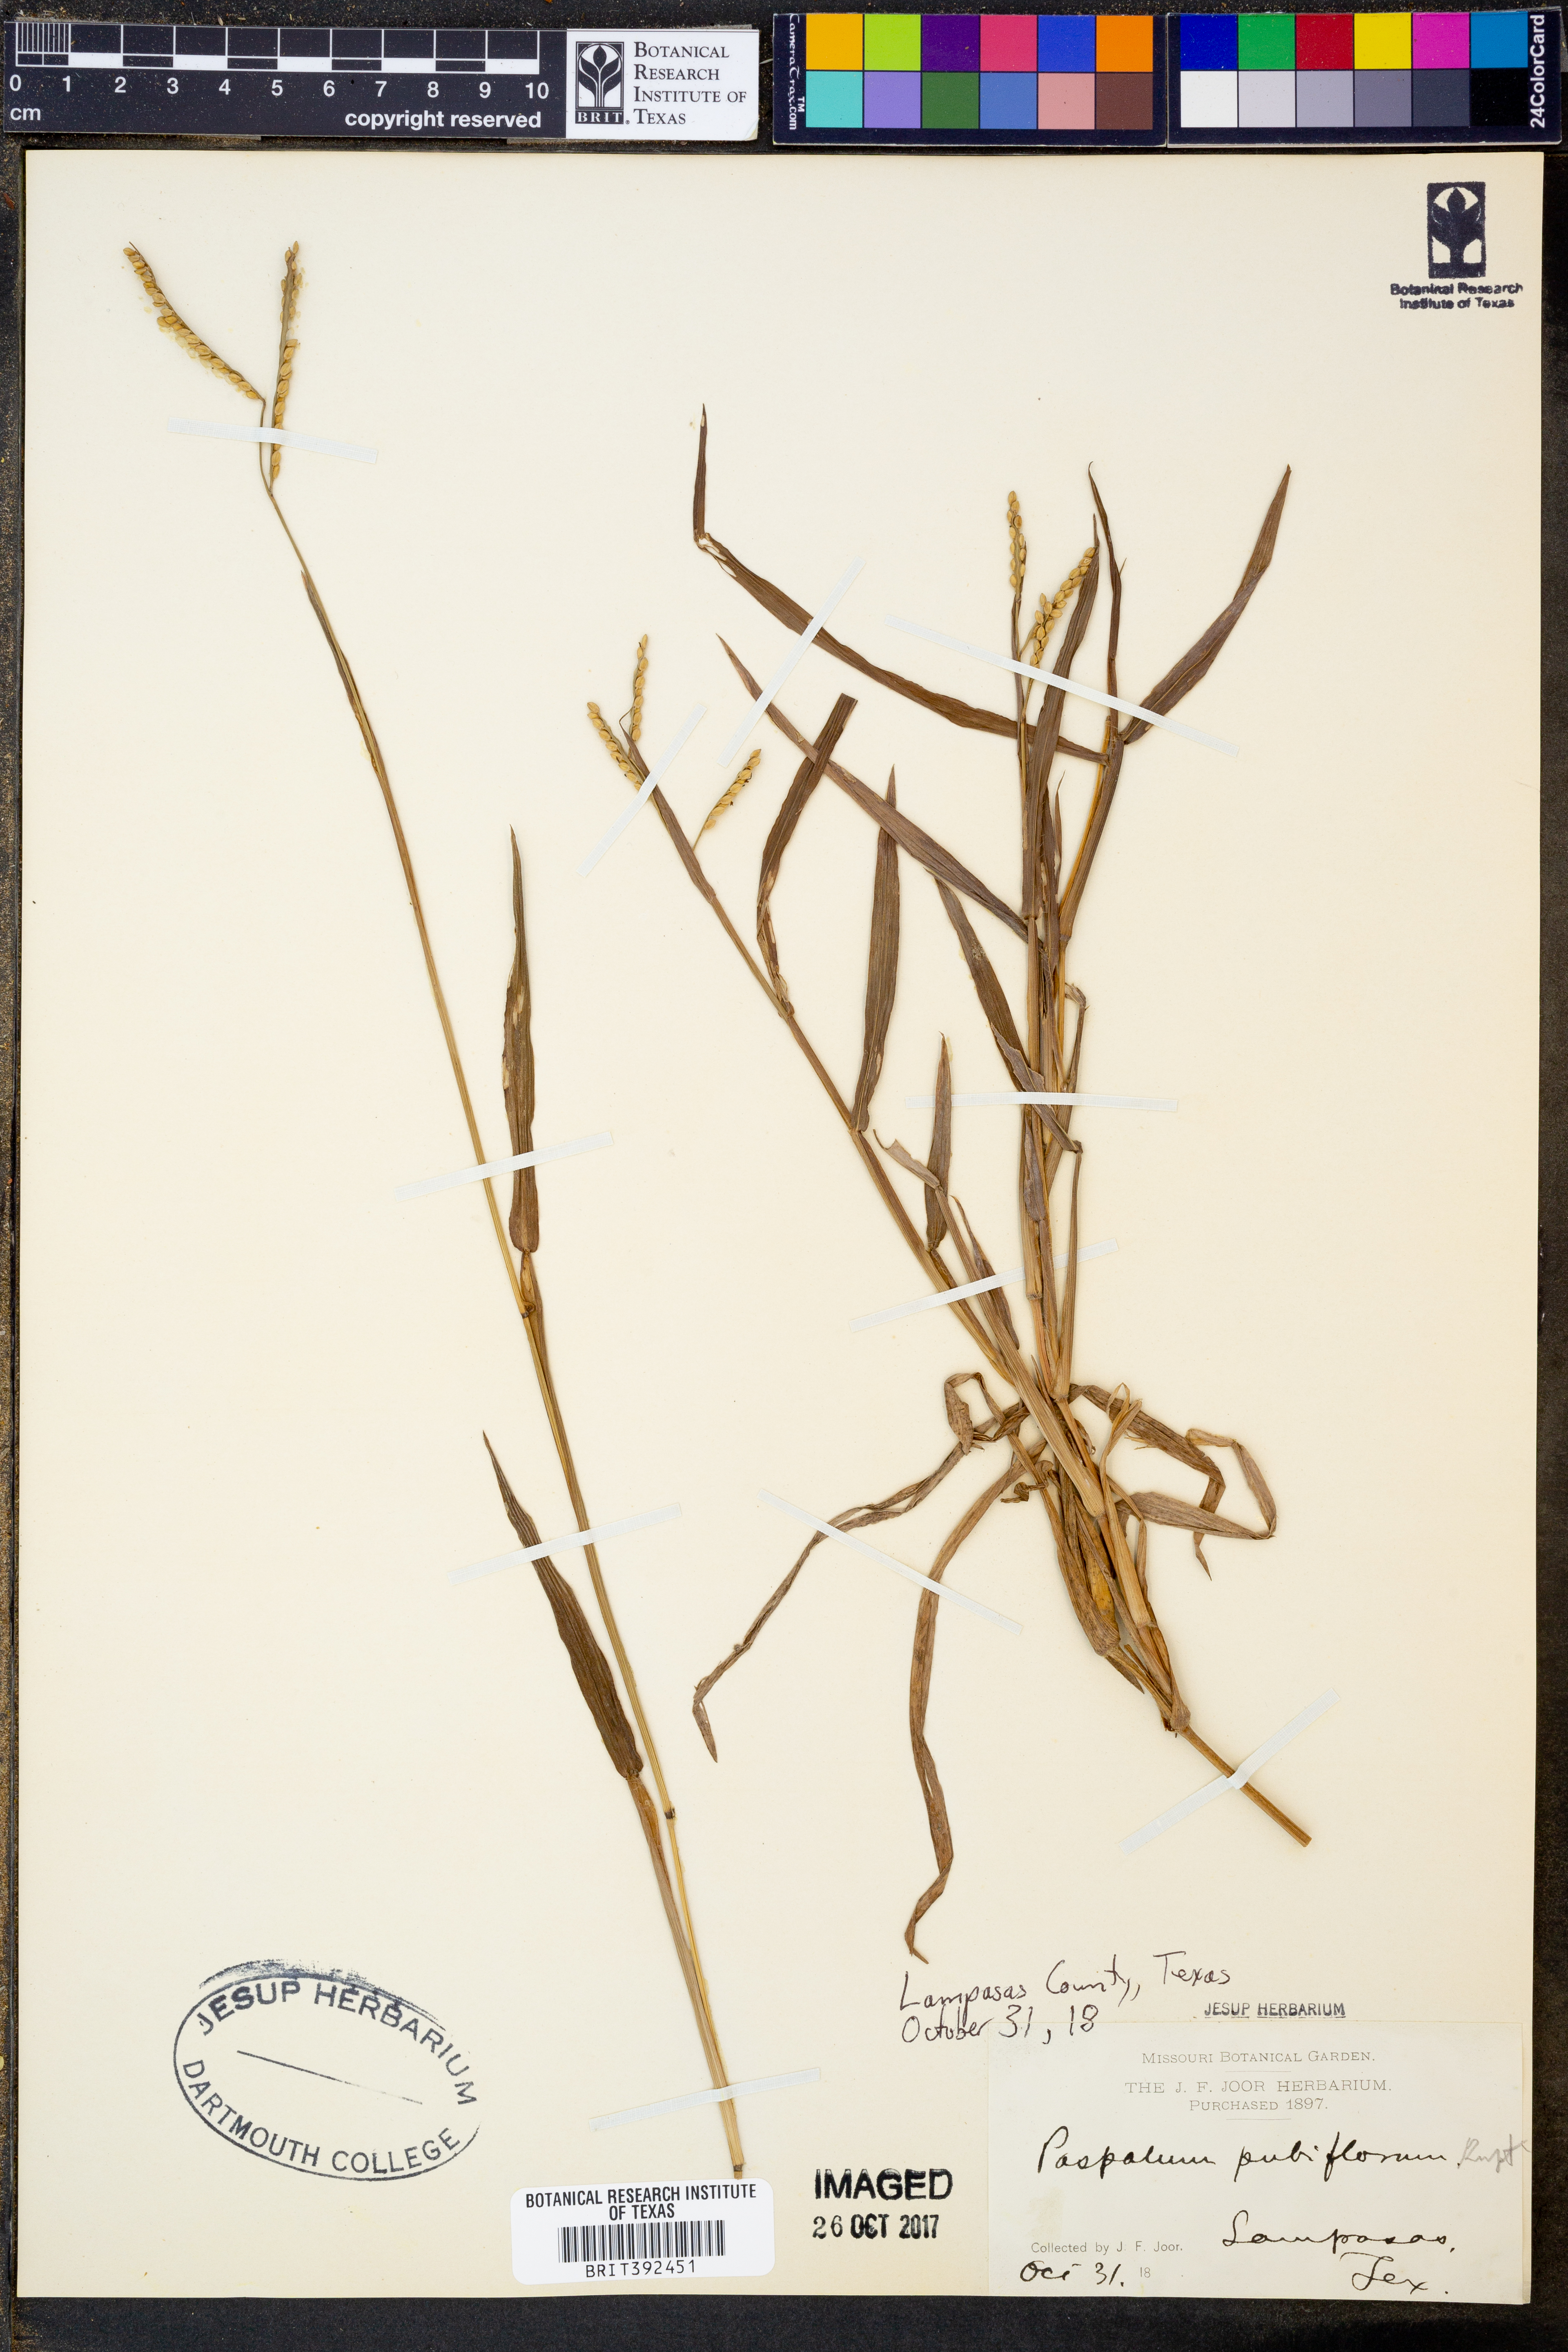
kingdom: Plantae
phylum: Tracheophyta
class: Liliopsida
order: Poales
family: Poaceae
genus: Paspalum
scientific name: Paspalum pubiflorum
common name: Hairy-seed paspalum
